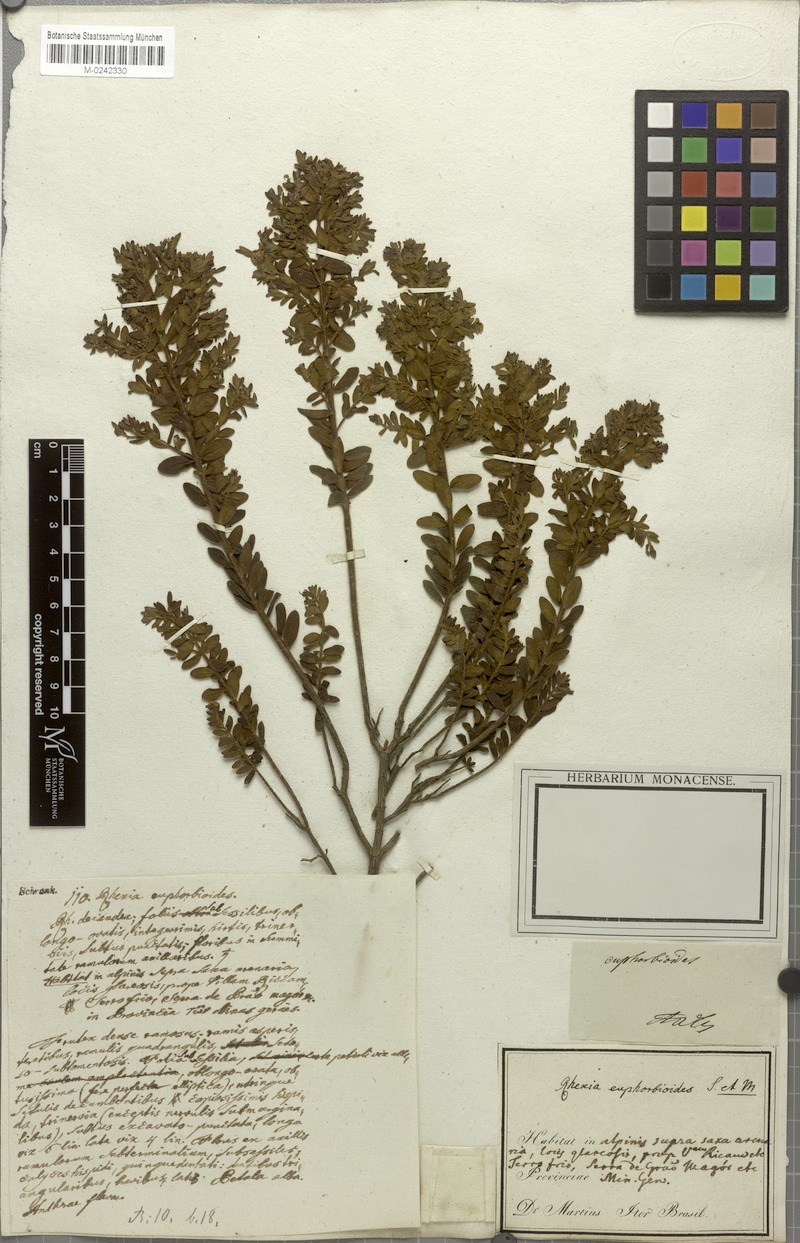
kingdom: Plantae
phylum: Tracheophyta
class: Magnoliopsida
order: Myrtales
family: Melastomataceae
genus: Microlicia
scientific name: Microlicia euphorbioides
